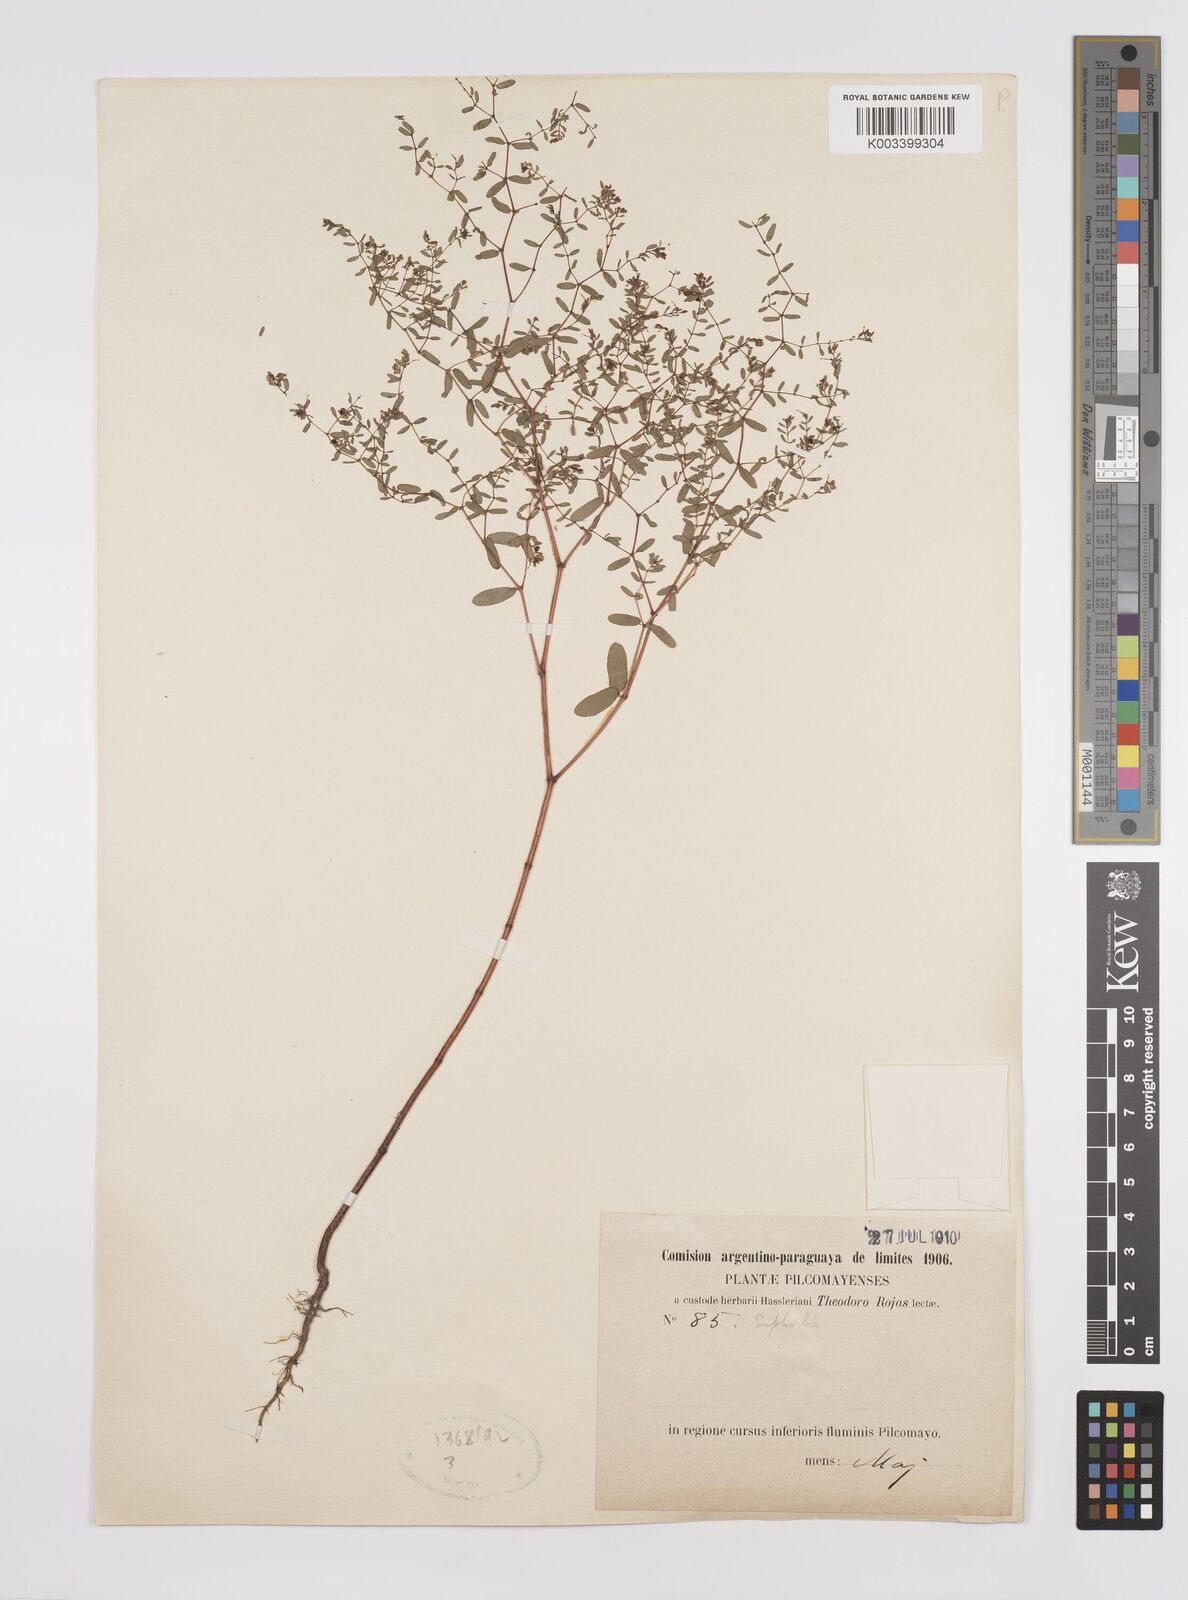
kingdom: Plantae
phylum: Tracheophyta
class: Magnoliopsida
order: Malpighiales
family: Euphorbiaceae
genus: Euphorbia
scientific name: Euphorbia
